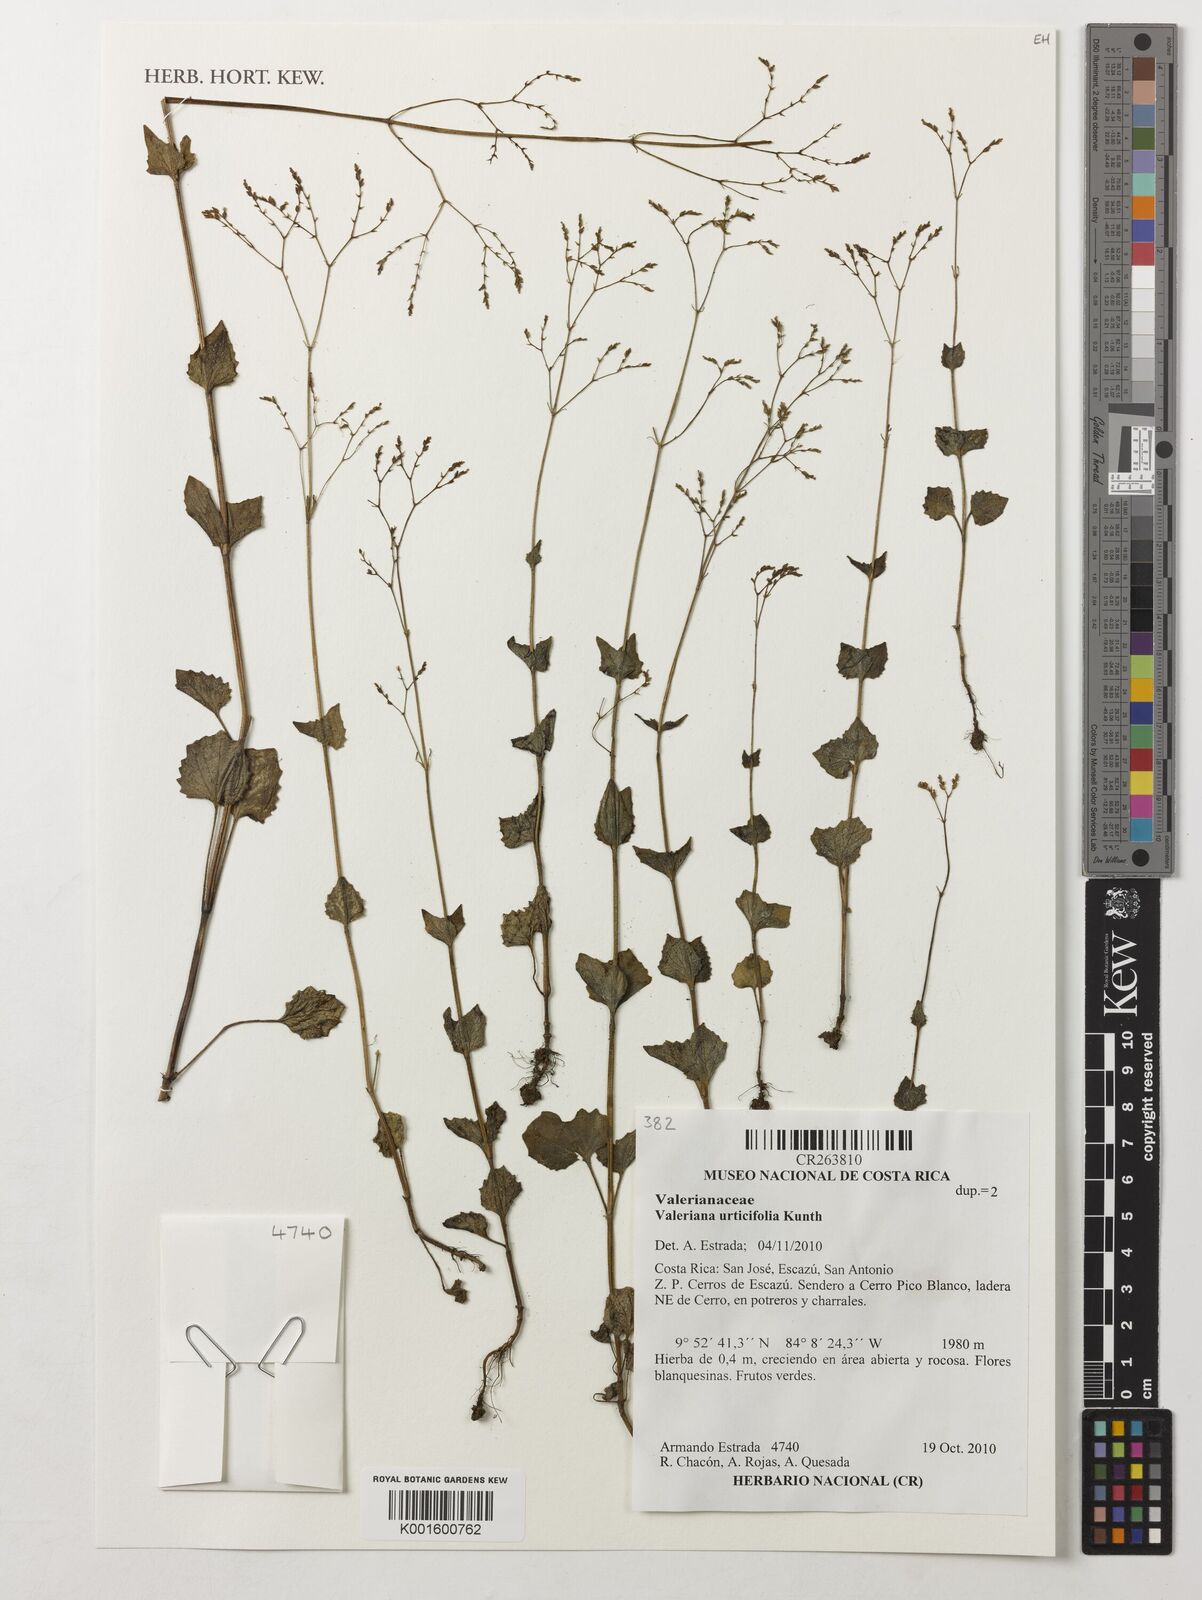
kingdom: Plantae
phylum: Tracheophyta
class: Magnoliopsida
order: Dipsacales
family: Caprifoliaceae
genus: Valeriana
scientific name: Valeriana urticifolia
